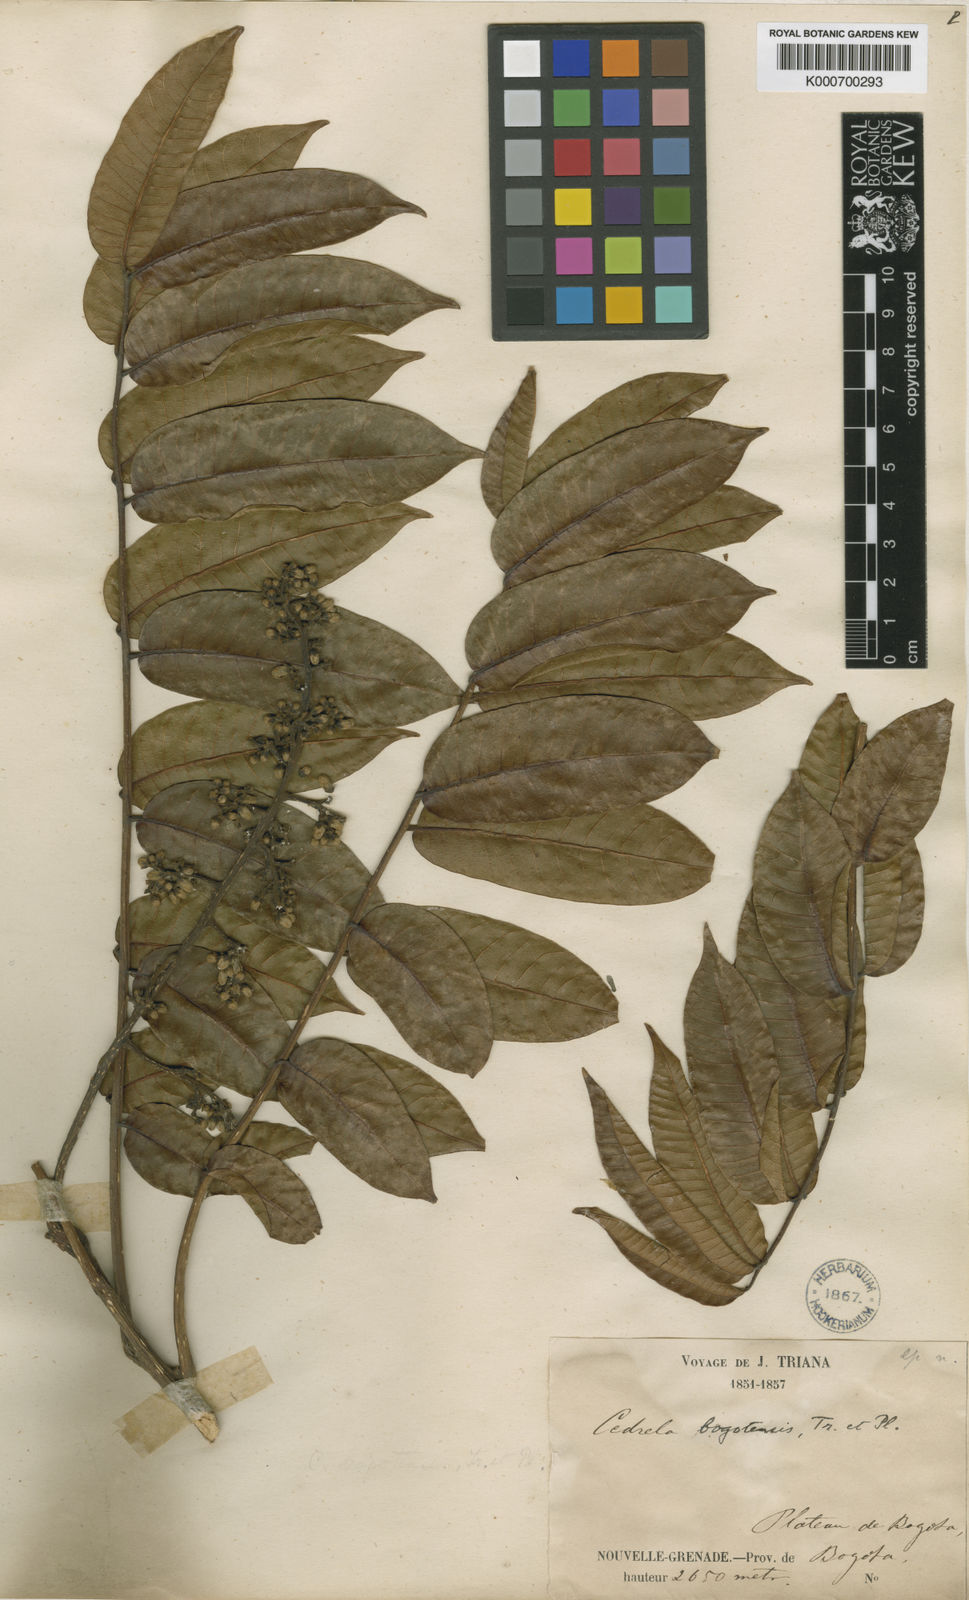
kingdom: Plantae
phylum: Tracheophyta
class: Magnoliopsida
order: Sapindales
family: Meliaceae
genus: Cedrela
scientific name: Cedrela montana
